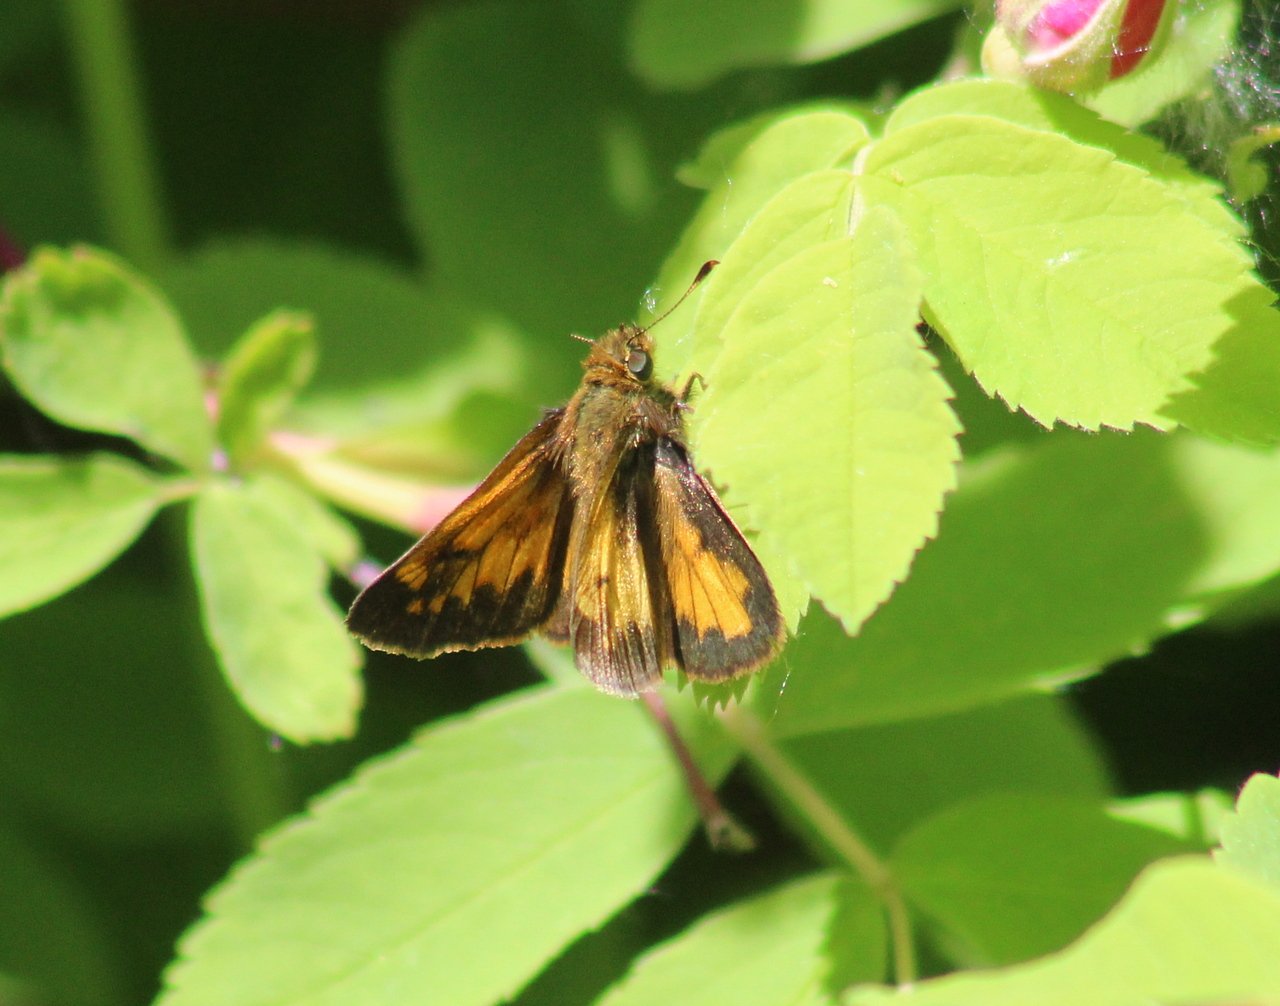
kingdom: Animalia
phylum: Arthropoda
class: Insecta
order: Lepidoptera
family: Hesperiidae
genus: Lon
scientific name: Lon hobomok
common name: Hobomok Skipper
